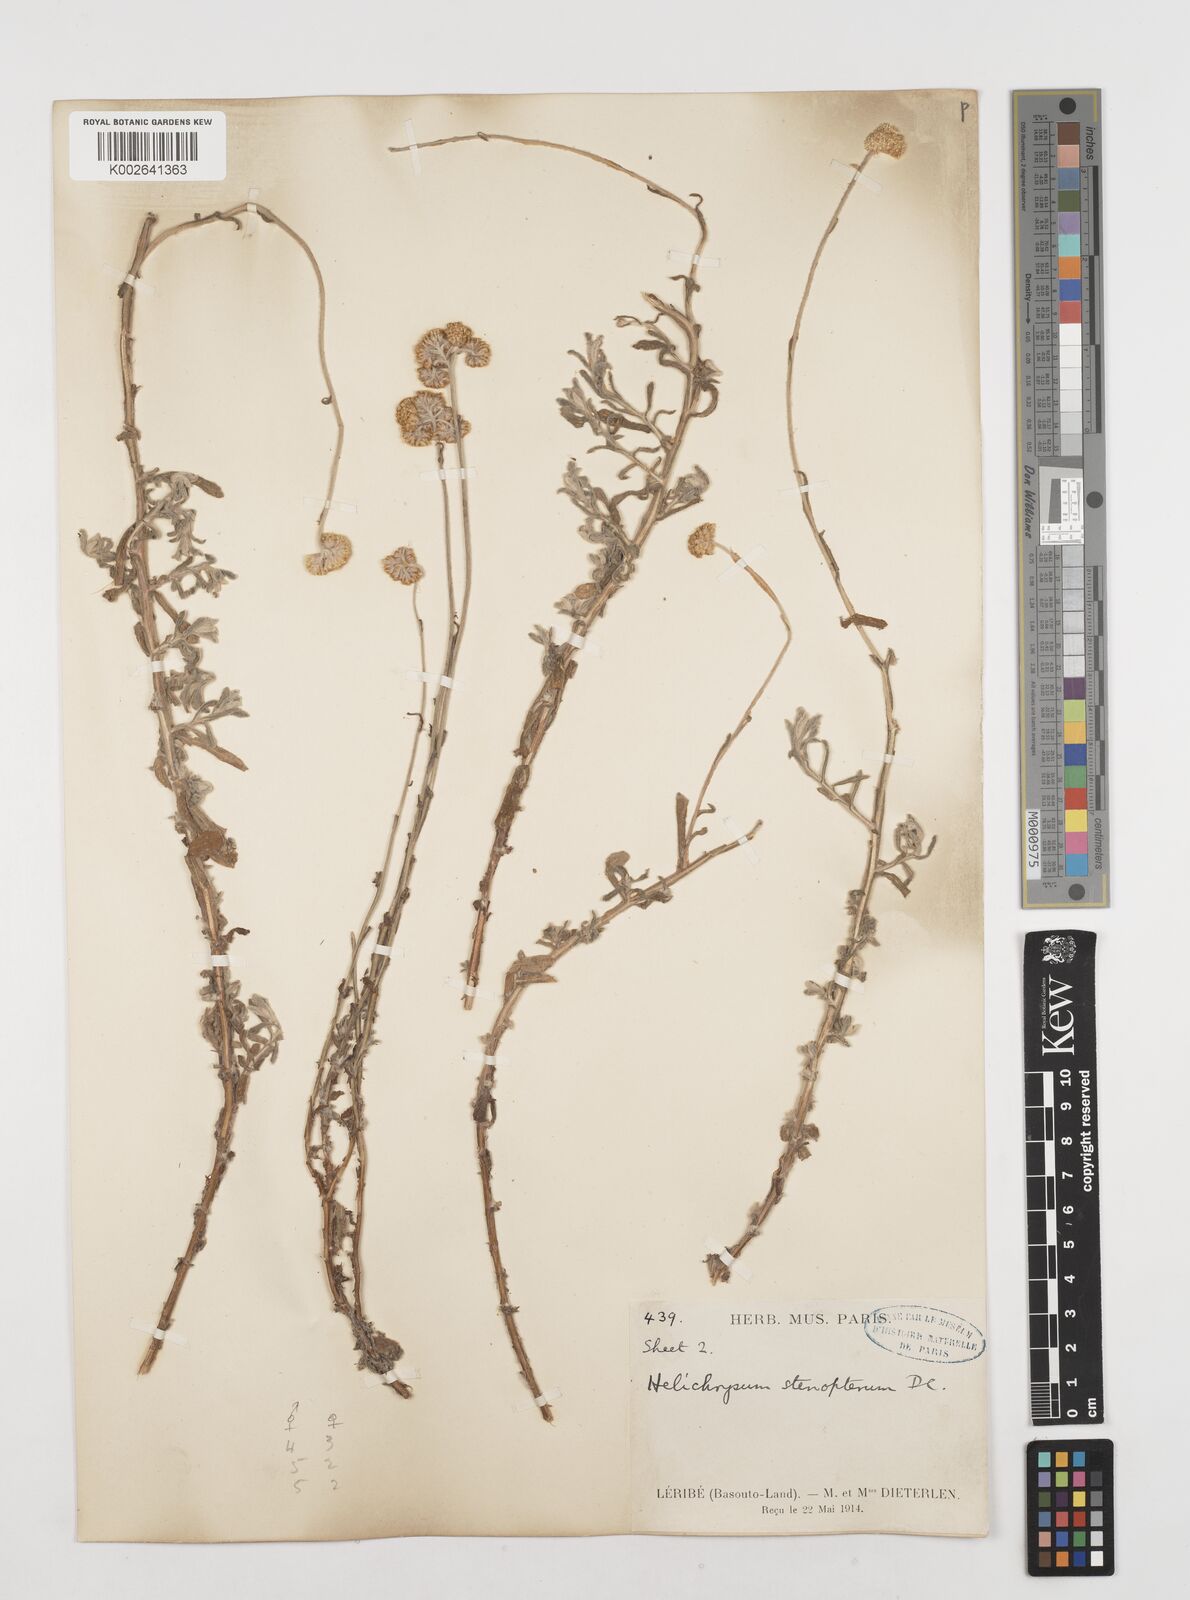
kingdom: Plantae
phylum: Tracheophyta
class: Magnoliopsida
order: Asterales
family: Asteraceae
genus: Helichrysum
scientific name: Helichrysum odoratissimum
